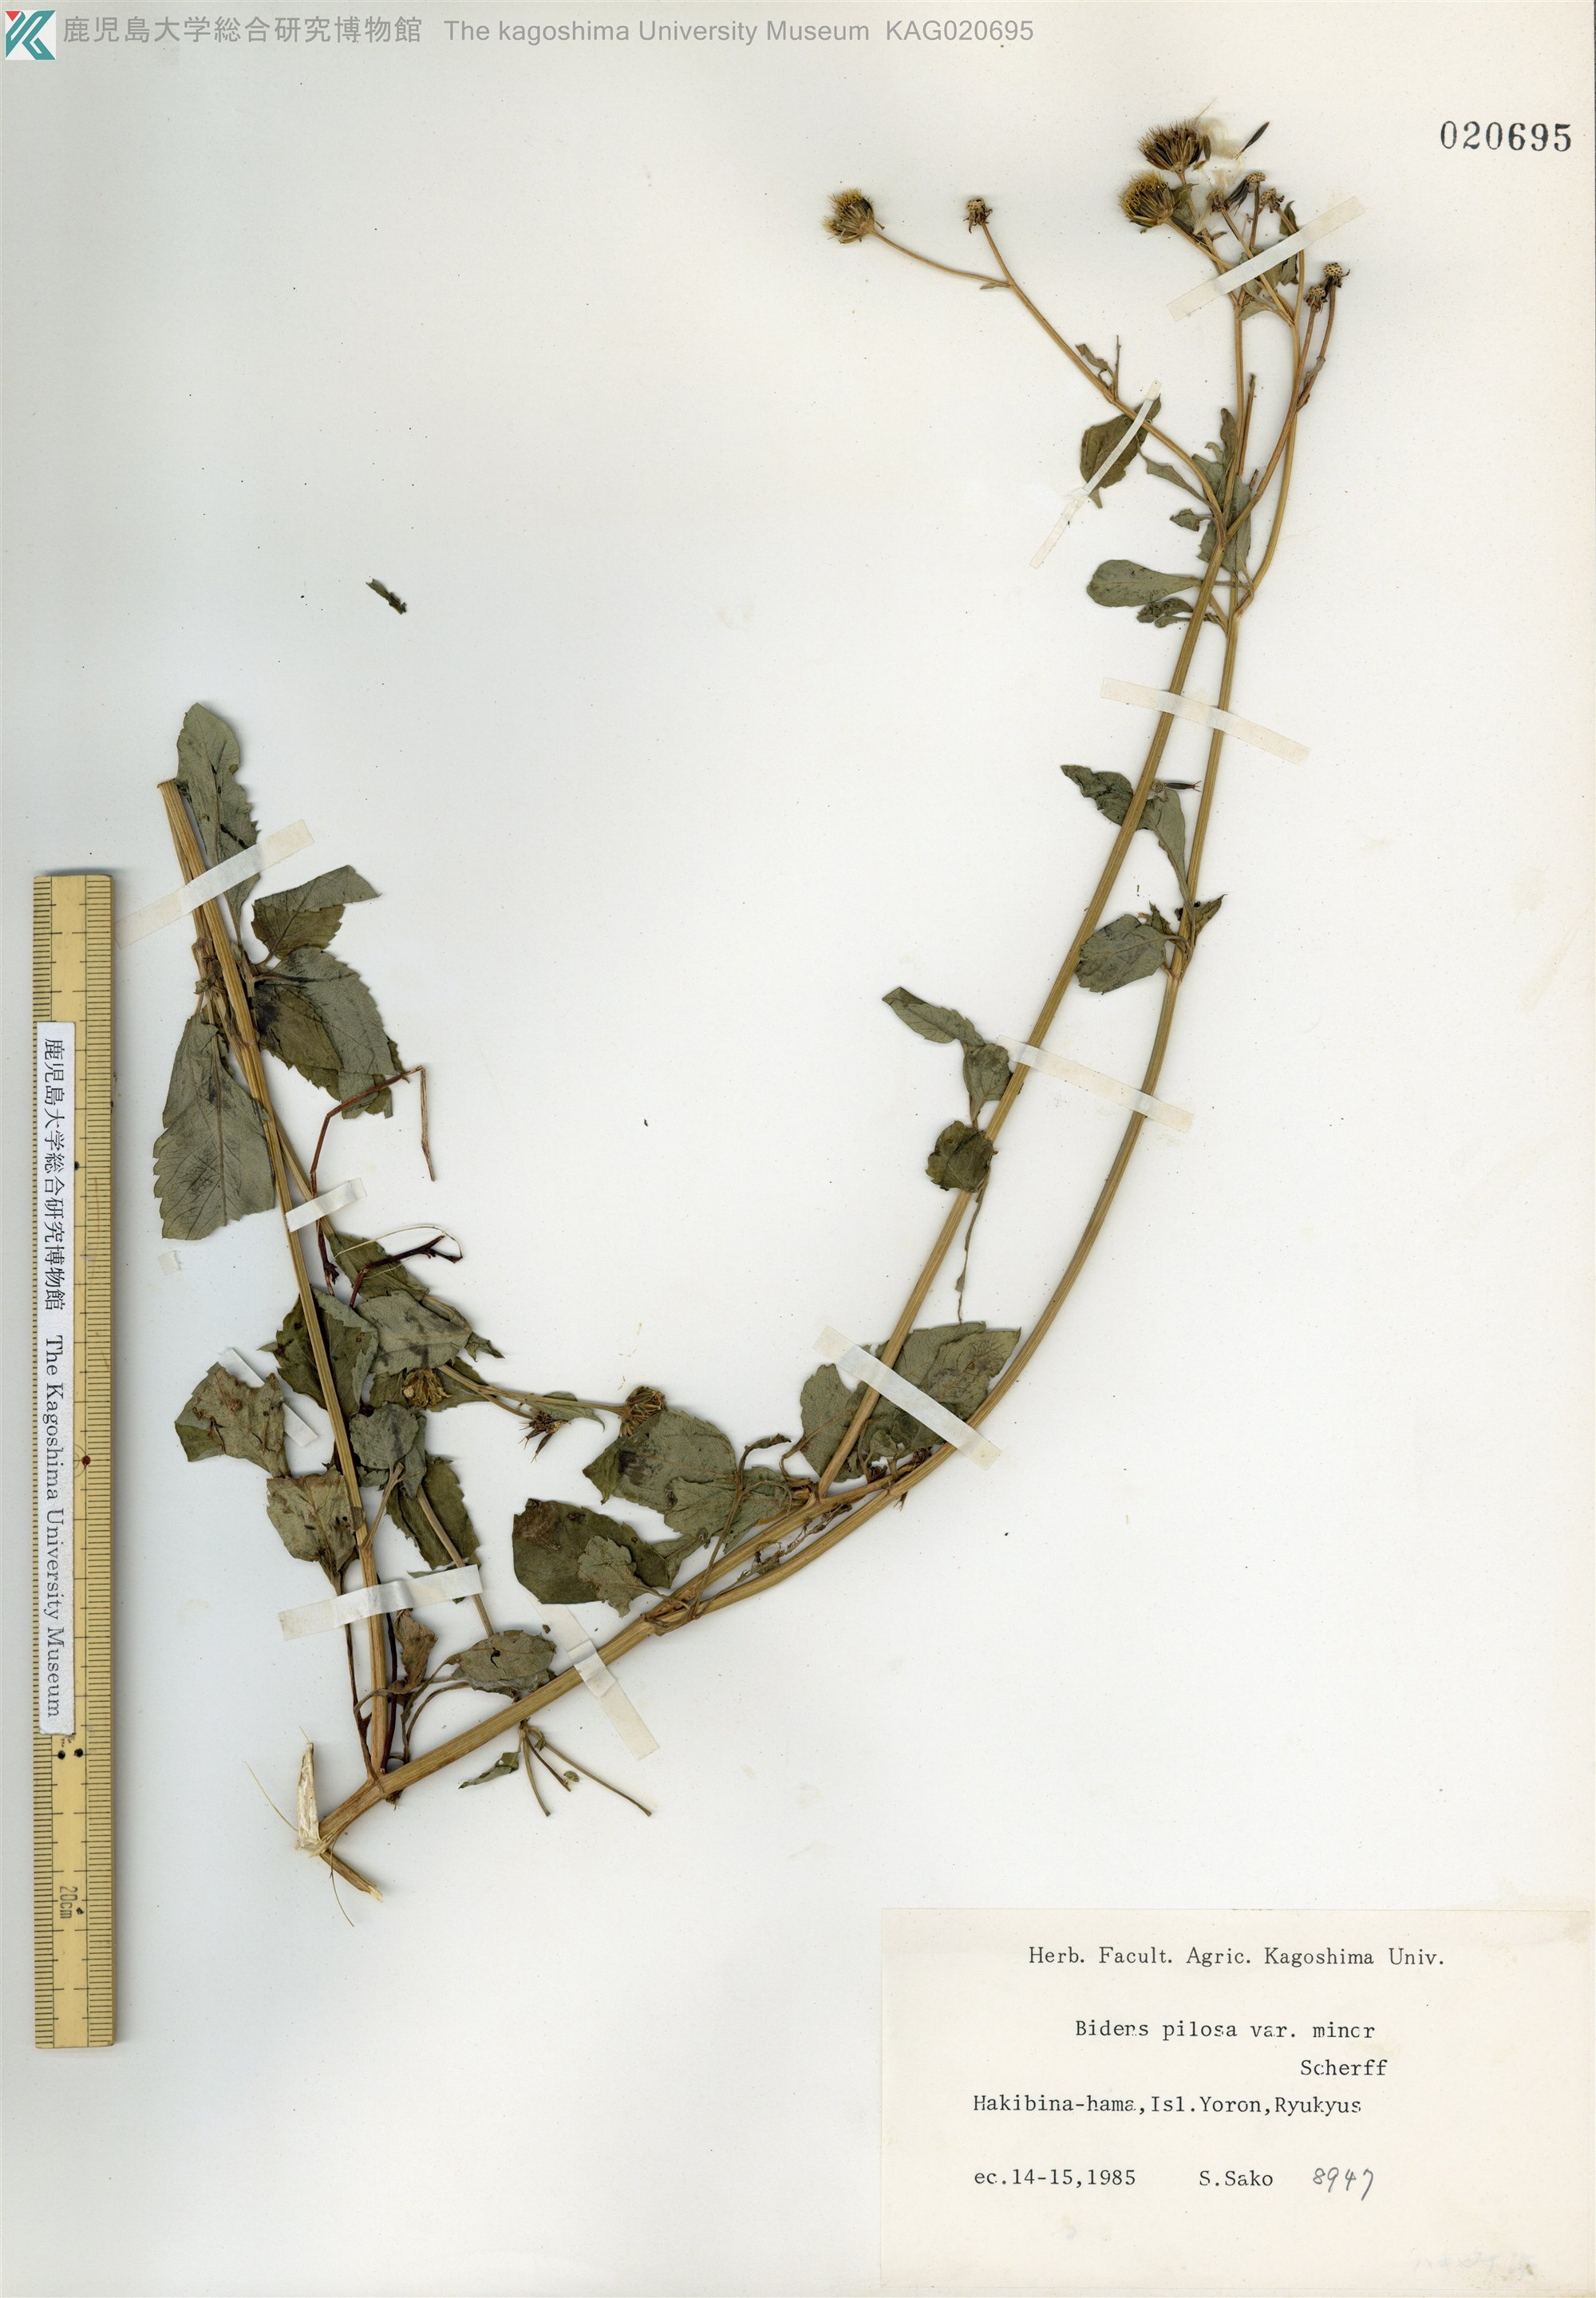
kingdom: Plantae
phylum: Tracheophyta
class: Magnoliopsida
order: Asterales
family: Asteraceae
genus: Bidens
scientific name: Bidens pilosa
